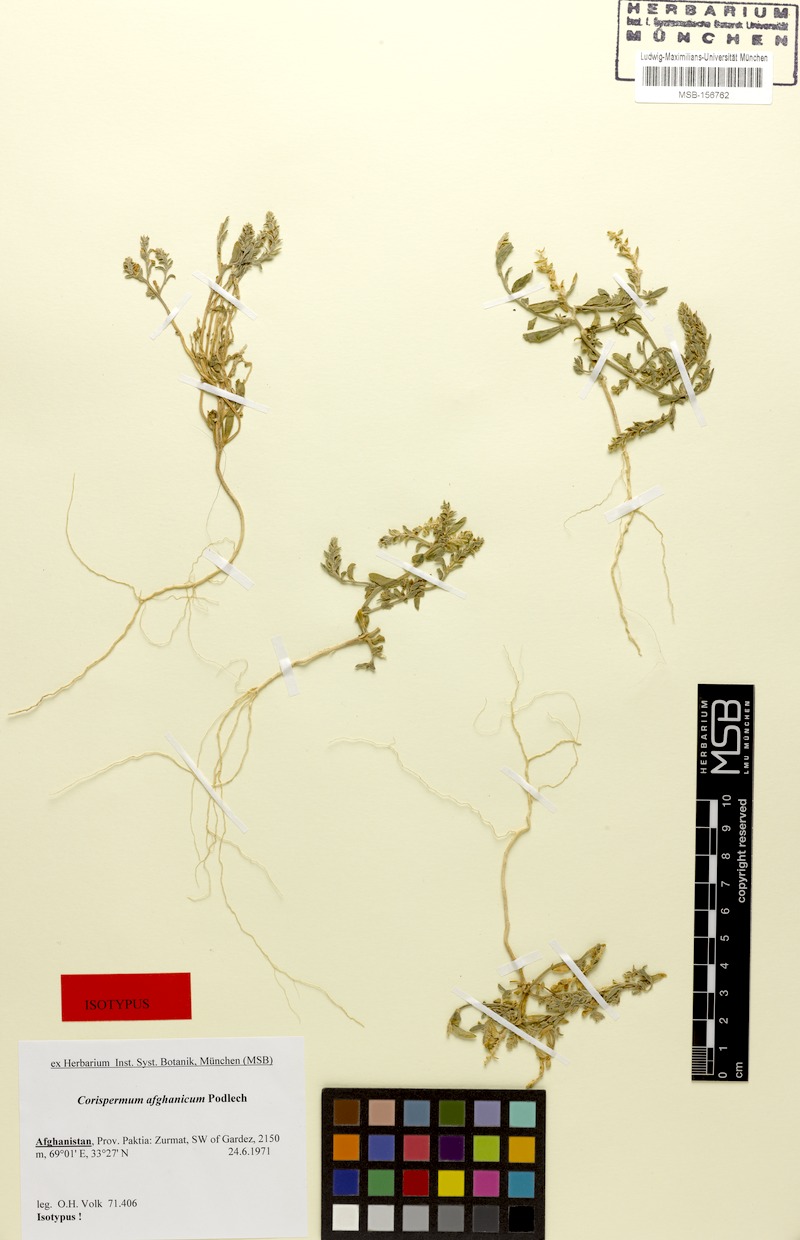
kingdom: Plantae
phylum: Tracheophyta
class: Magnoliopsida
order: Caryophyllales
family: Amaranthaceae
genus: Corispermum
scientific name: Corispermum afghanicum
